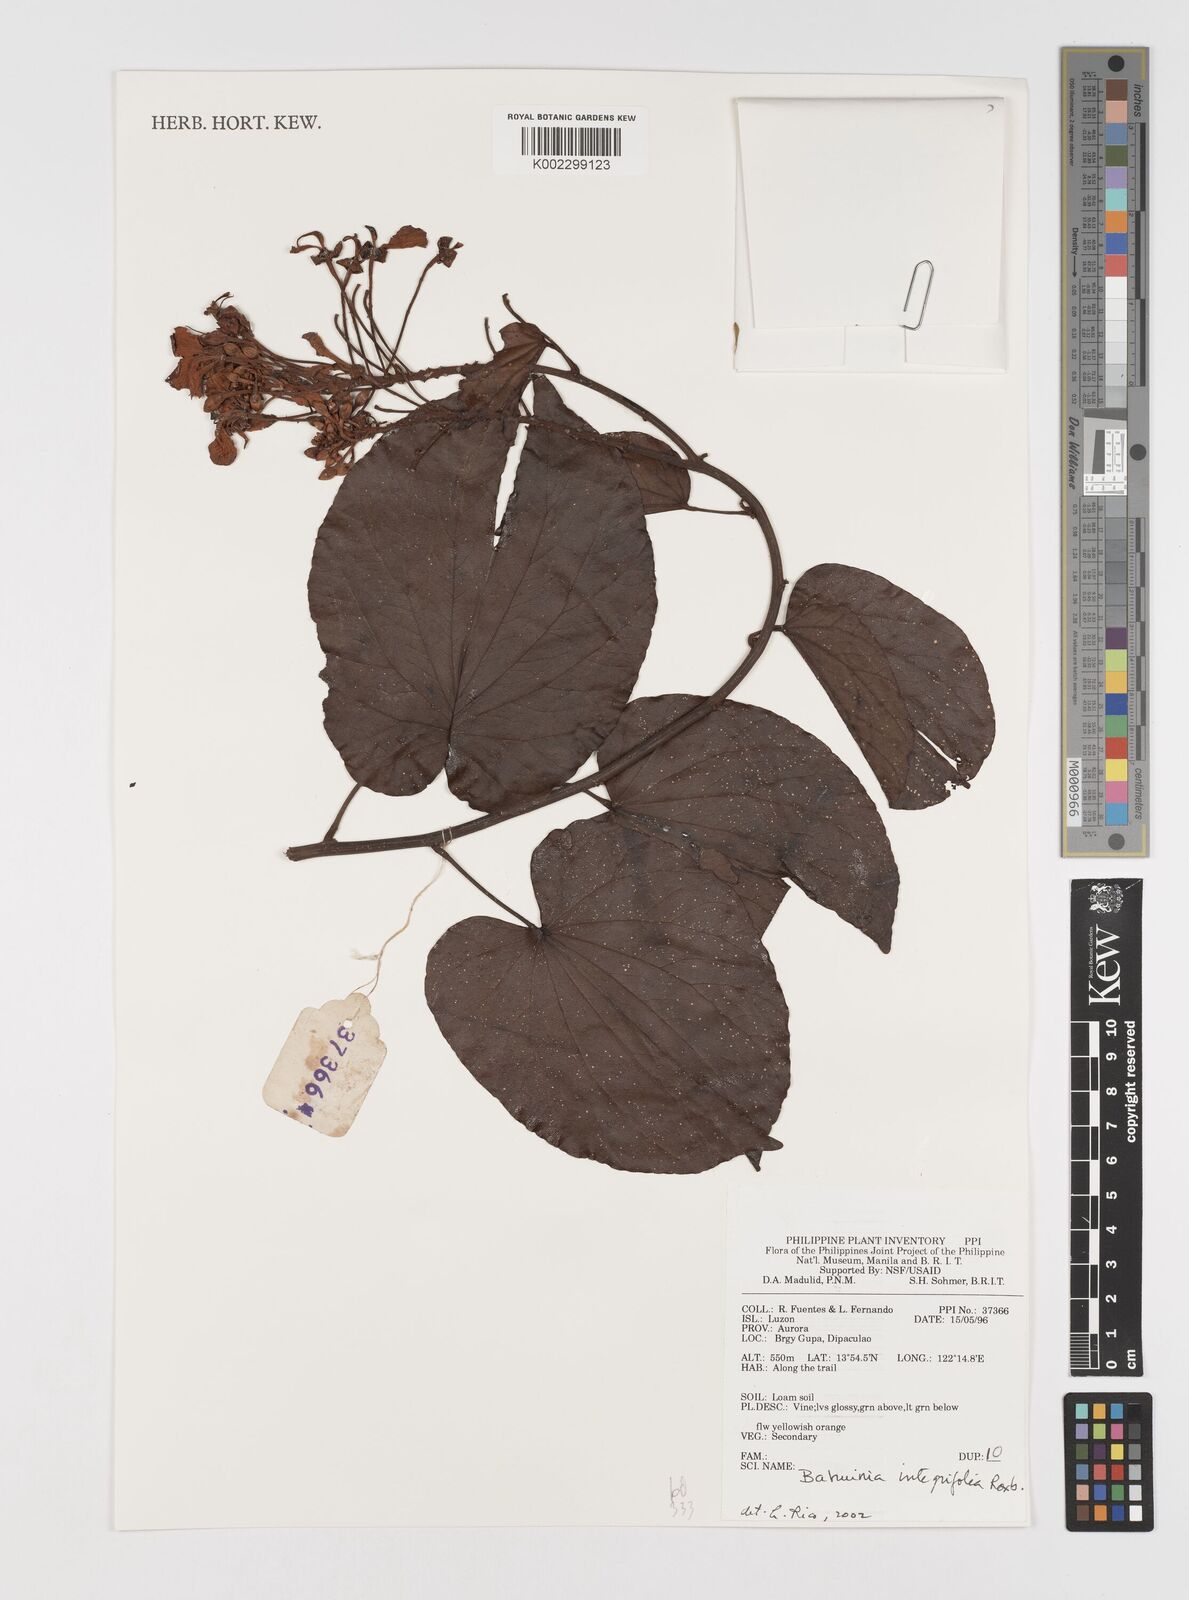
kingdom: Plantae
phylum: Tracheophyta
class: Magnoliopsida
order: Fabales
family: Fabaceae
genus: Phanera
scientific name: Phanera integrifolia
